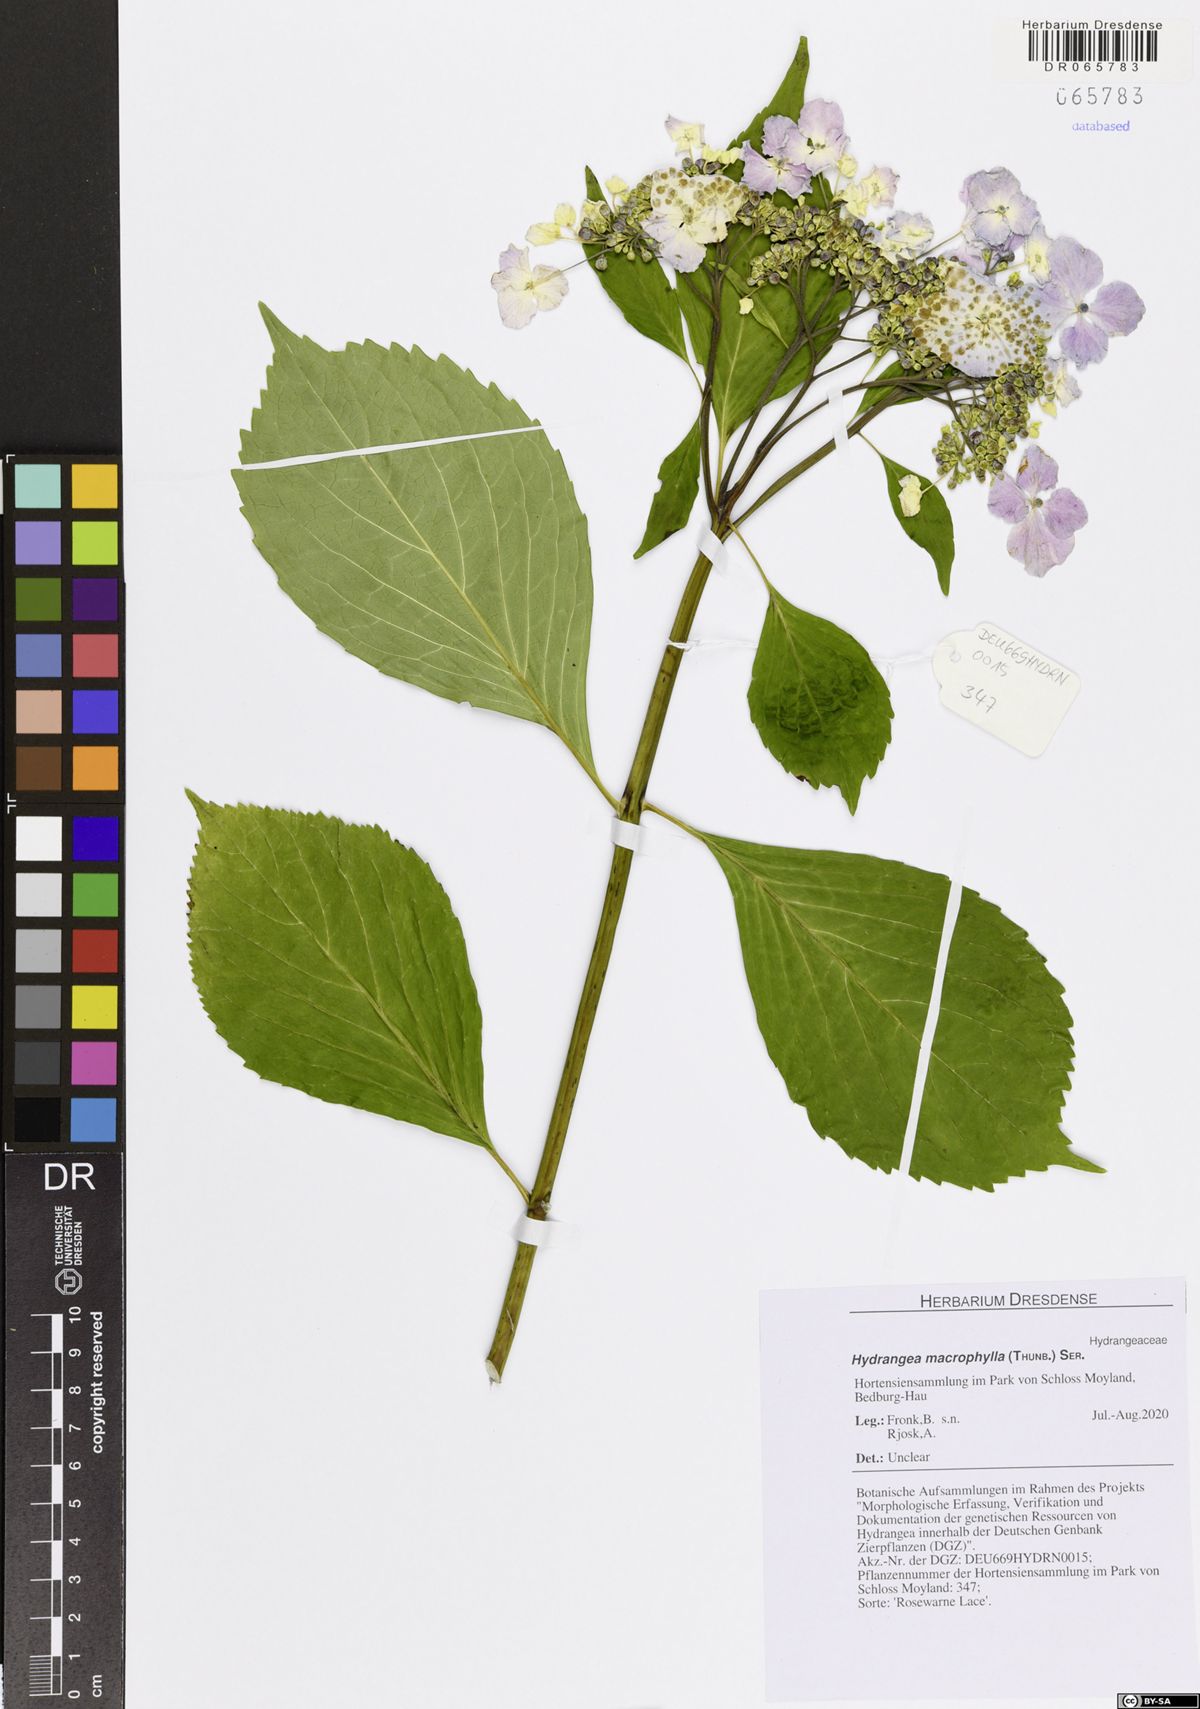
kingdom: Plantae
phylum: Tracheophyta
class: Magnoliopsida
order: Cornales
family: Hydrangeaceae
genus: Hydrangea
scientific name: Hydrangea macrophylla
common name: Hydrangea
